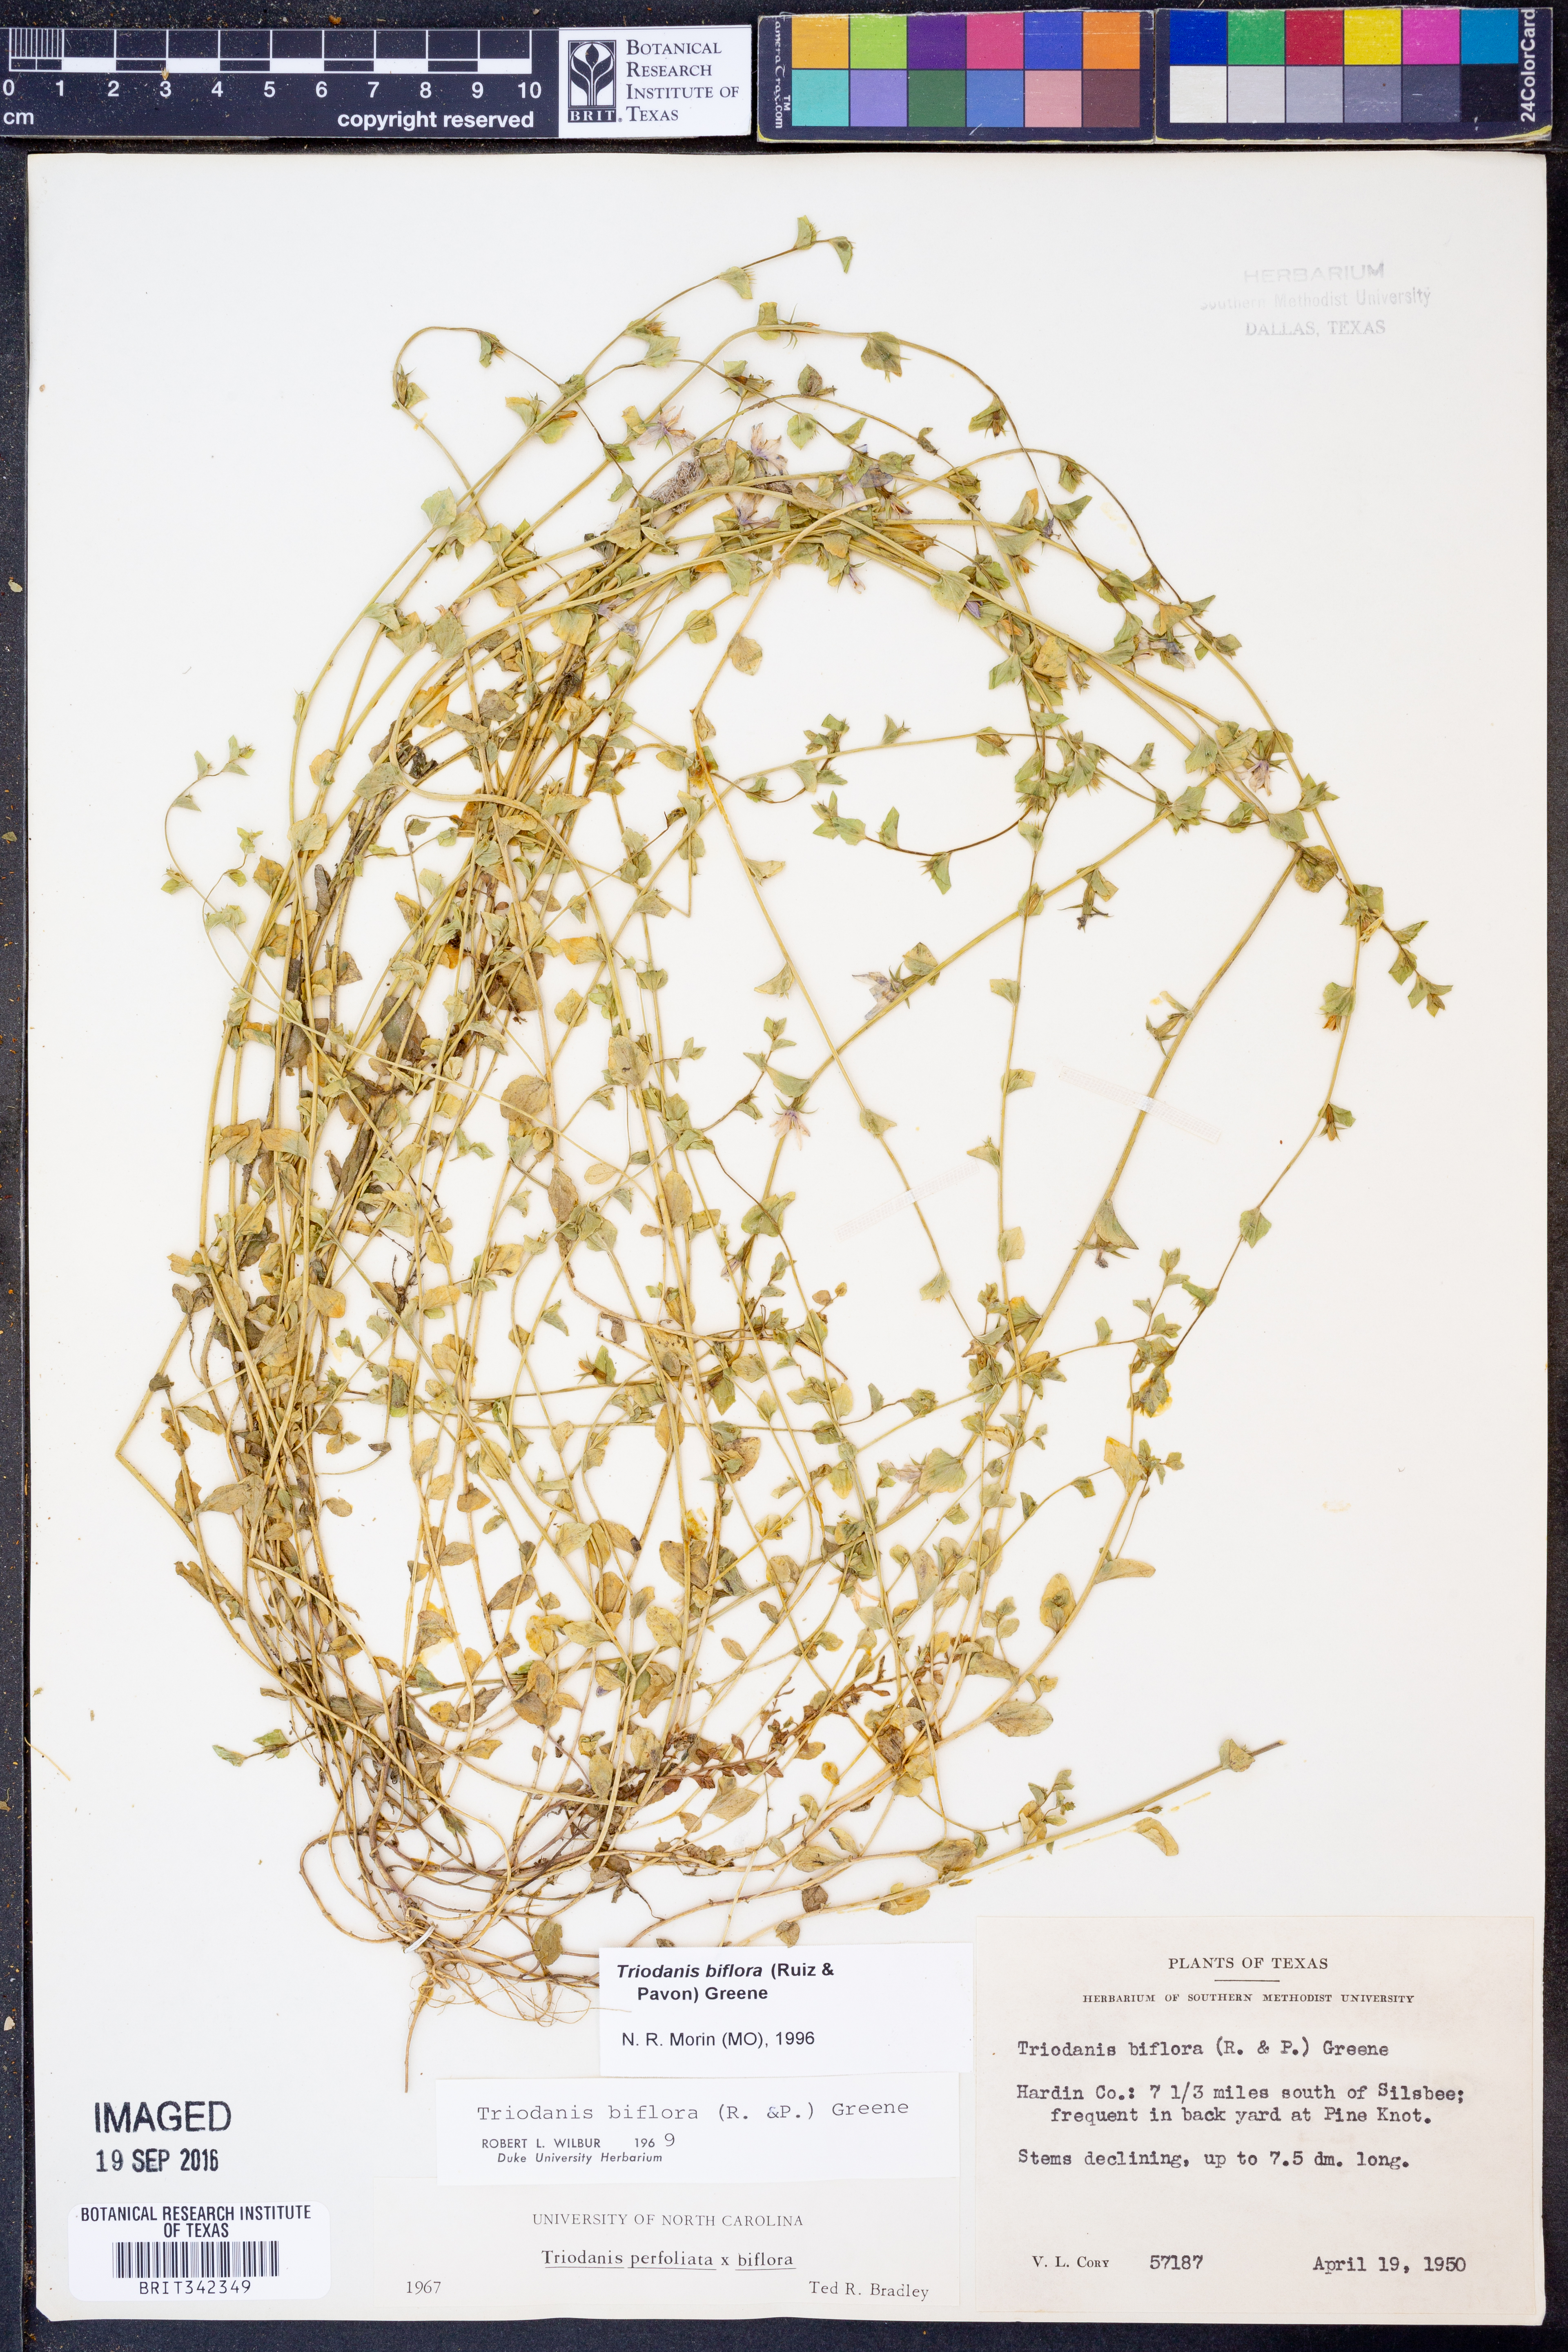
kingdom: Plantae
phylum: Tracheophyta
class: Magnoliopsida
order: Asterales
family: Campanulaceae
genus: Triodanis
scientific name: Triodanis perfoliata
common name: Clasping venus' looking-glass
